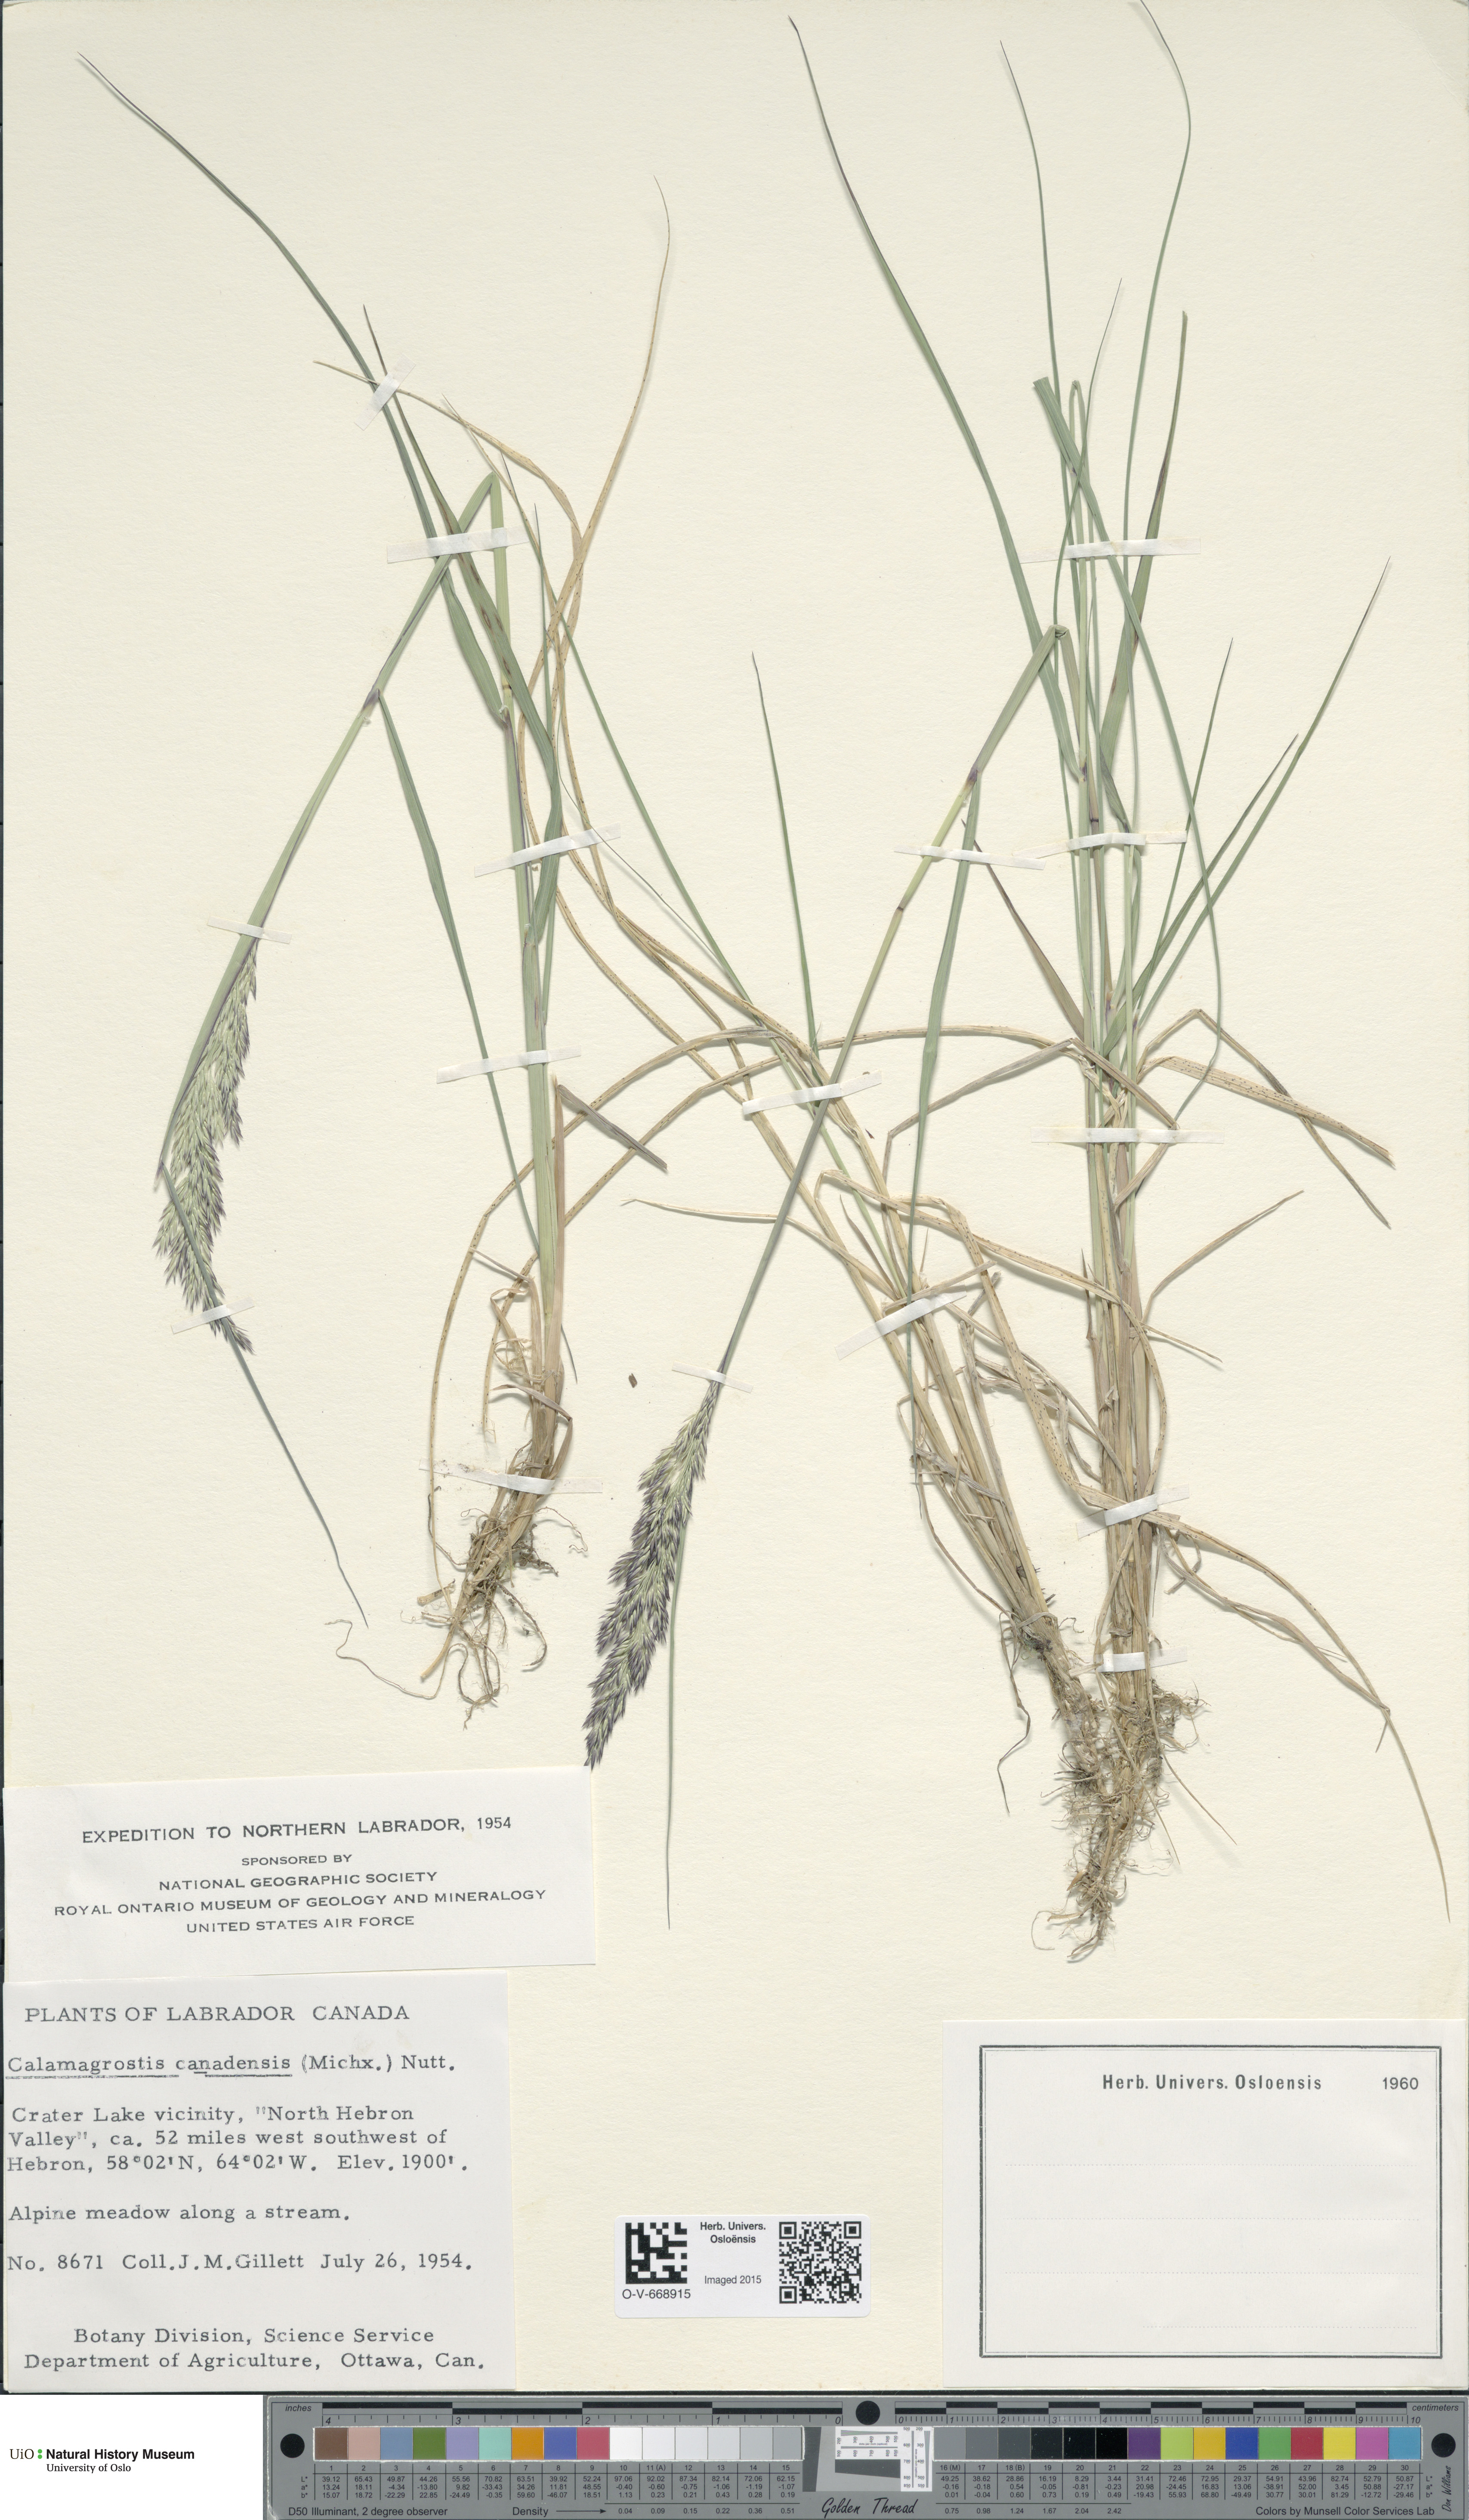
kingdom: Plantae
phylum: Tracheophyta
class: Liliopsida
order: Poales
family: Poaceae
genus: Calamagrostis
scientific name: Calamagrostis canadensis
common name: Canada bluejoint
